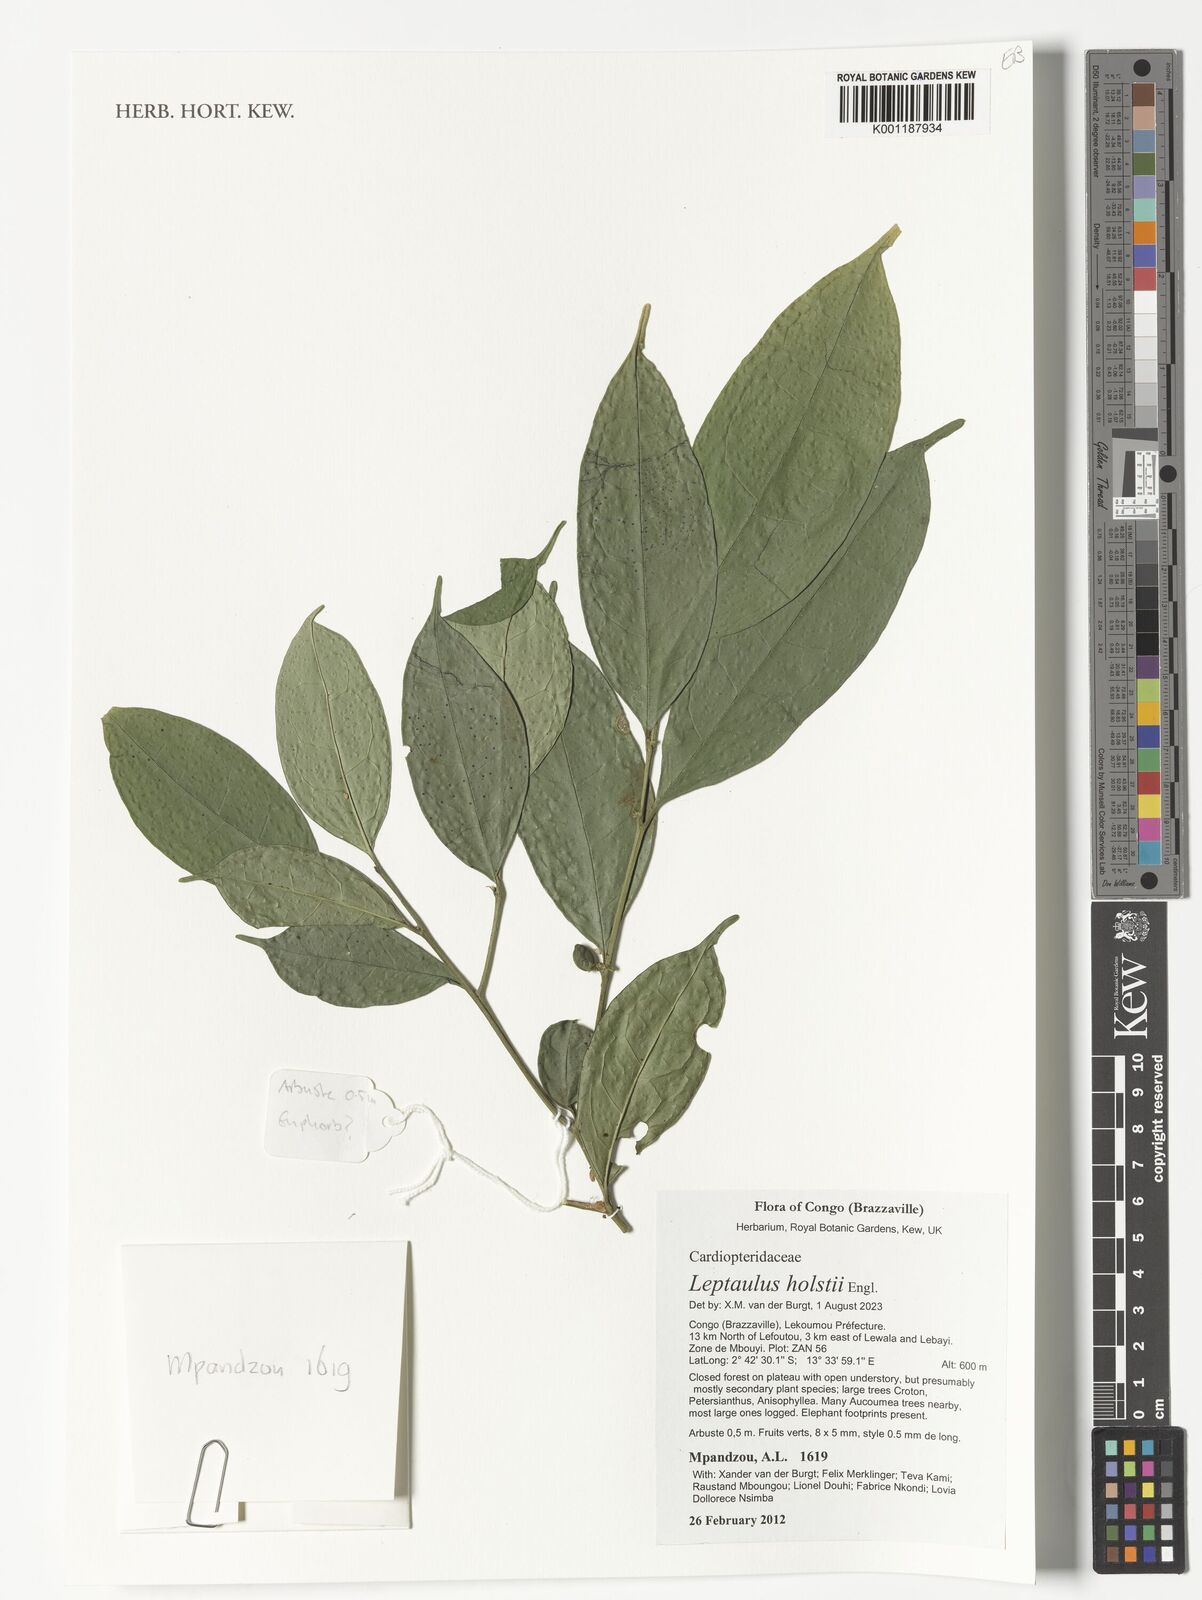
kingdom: Plantae
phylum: Tracheophyta
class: Magnoliopsida
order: Cardiopteridales
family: Cardiopteridaceae
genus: Leptaulus
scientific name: Leptaulus holstii
